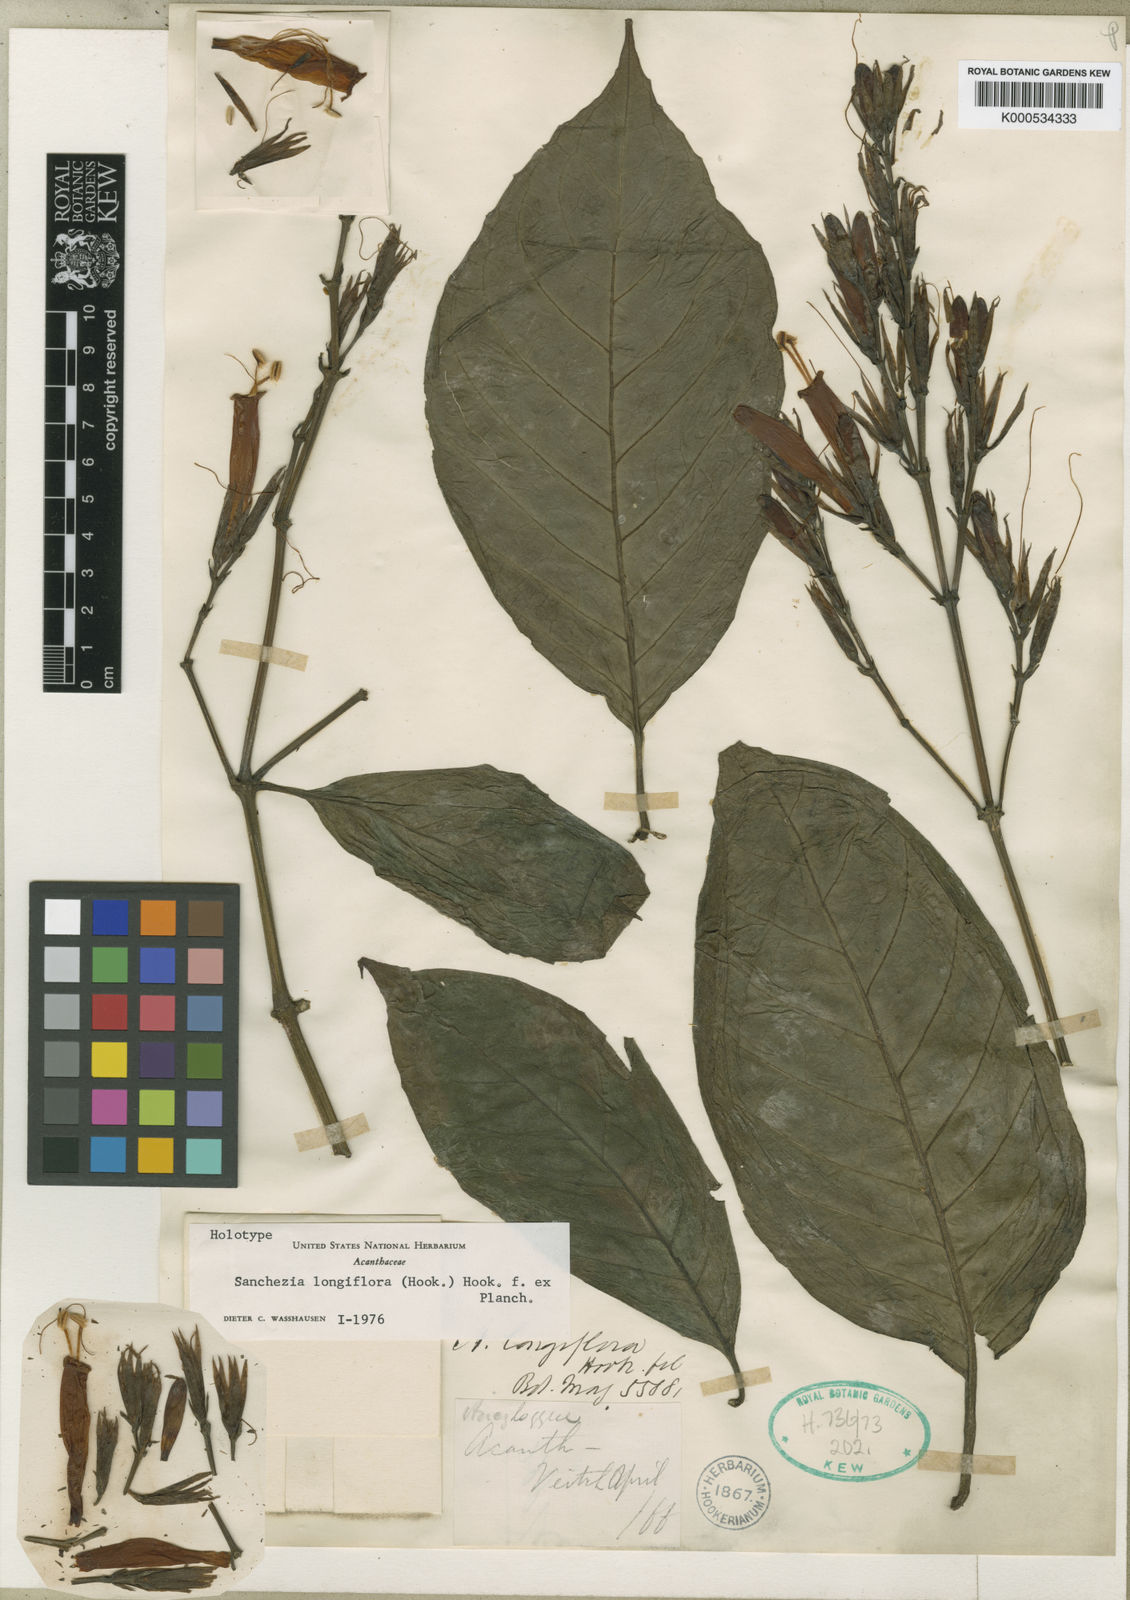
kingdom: Plantae
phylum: Tracheophyta
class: Magnoliopsida
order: Lamiales
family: Acanthaceae
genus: Sanchezia
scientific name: Sanchezia longiflora
